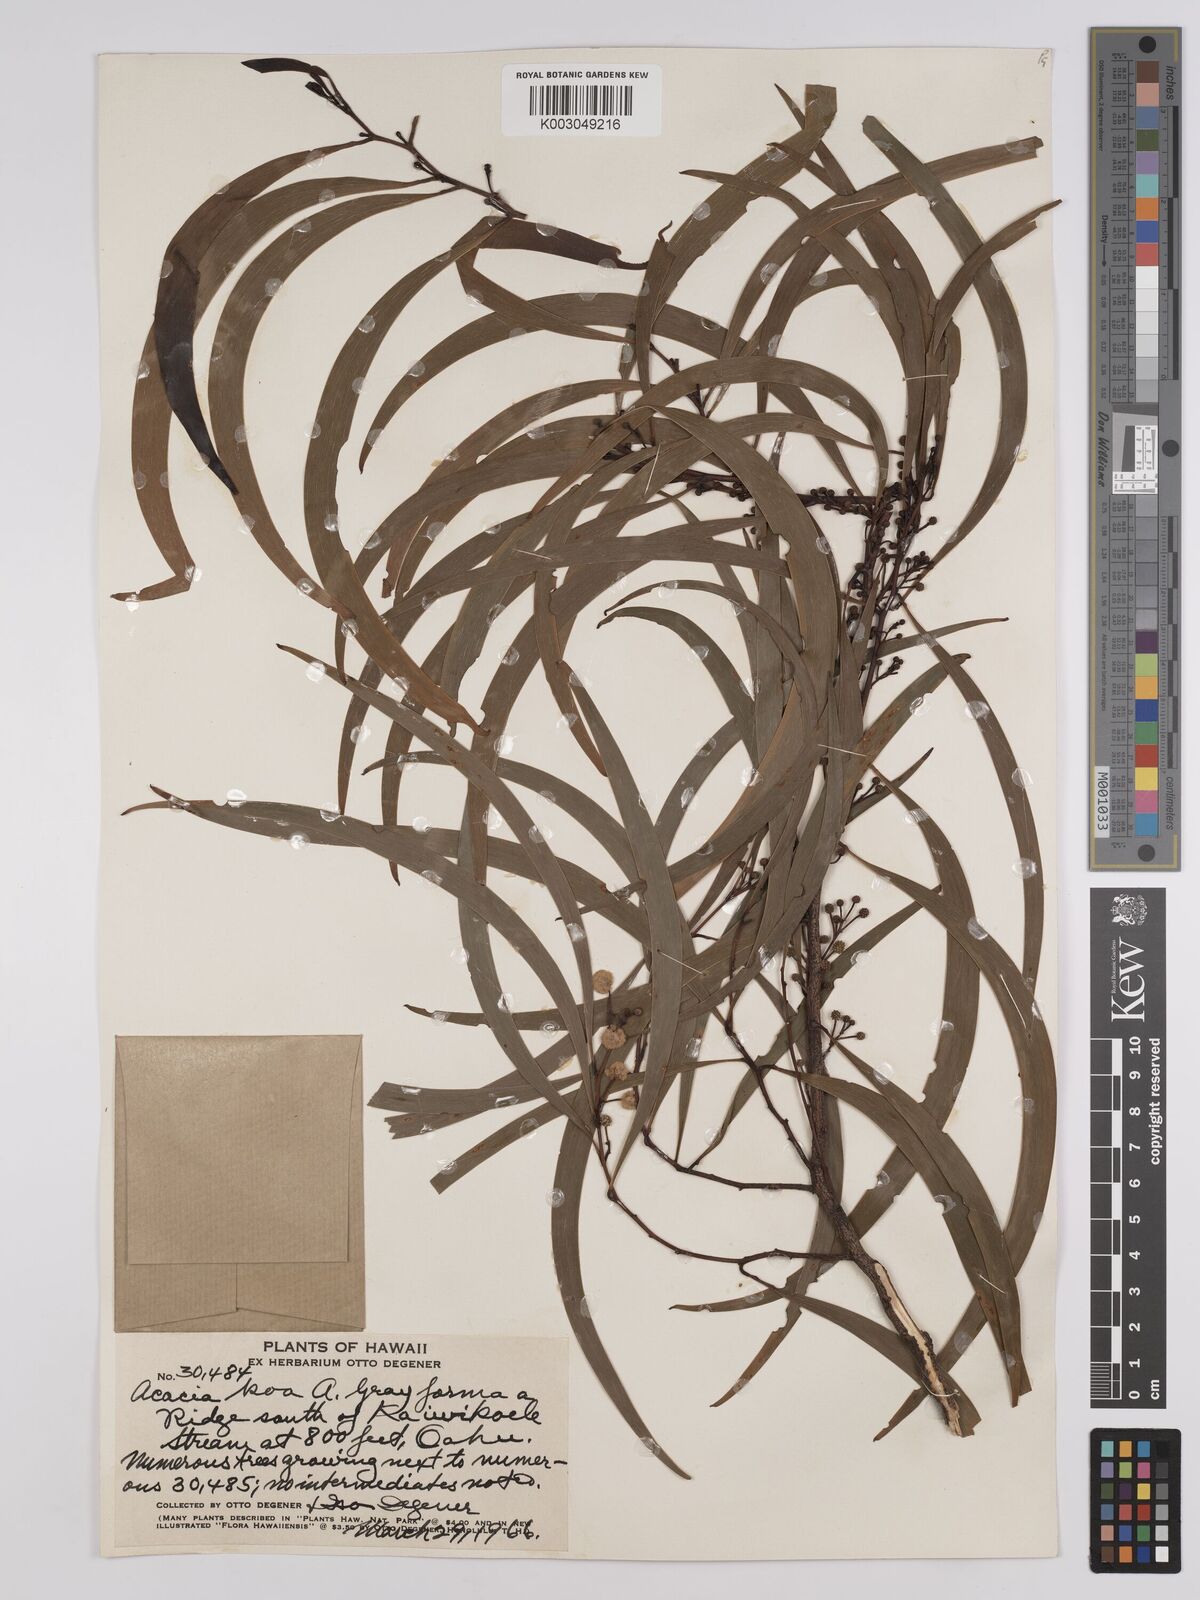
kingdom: Plantae
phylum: Tracheophyta
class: Magnoliopsida
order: Fabales
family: Fabaceae
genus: Acacia
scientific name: Acacia koa
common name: Gray koa
